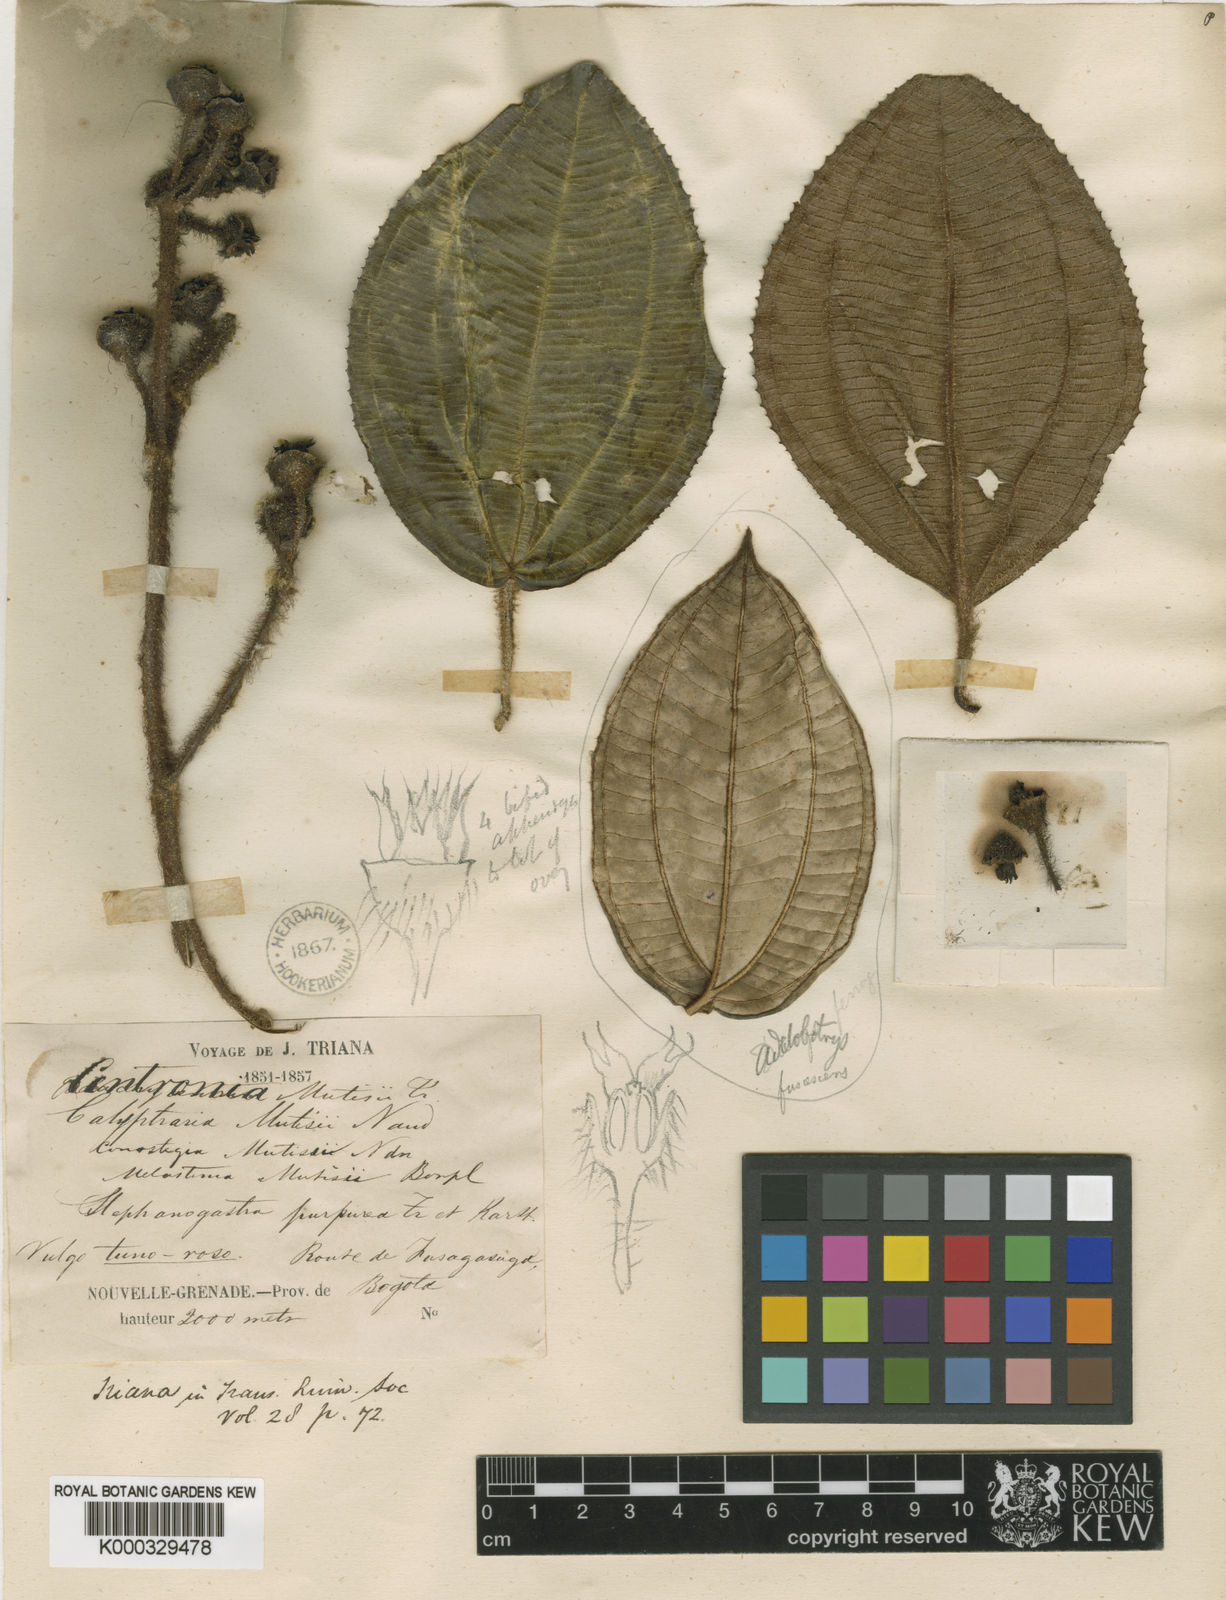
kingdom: Plantae
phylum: Tracheophyta
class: Magnoliopsida
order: Myrtales
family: Melastomataceae
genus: Meriania
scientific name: Meriania mutisii
